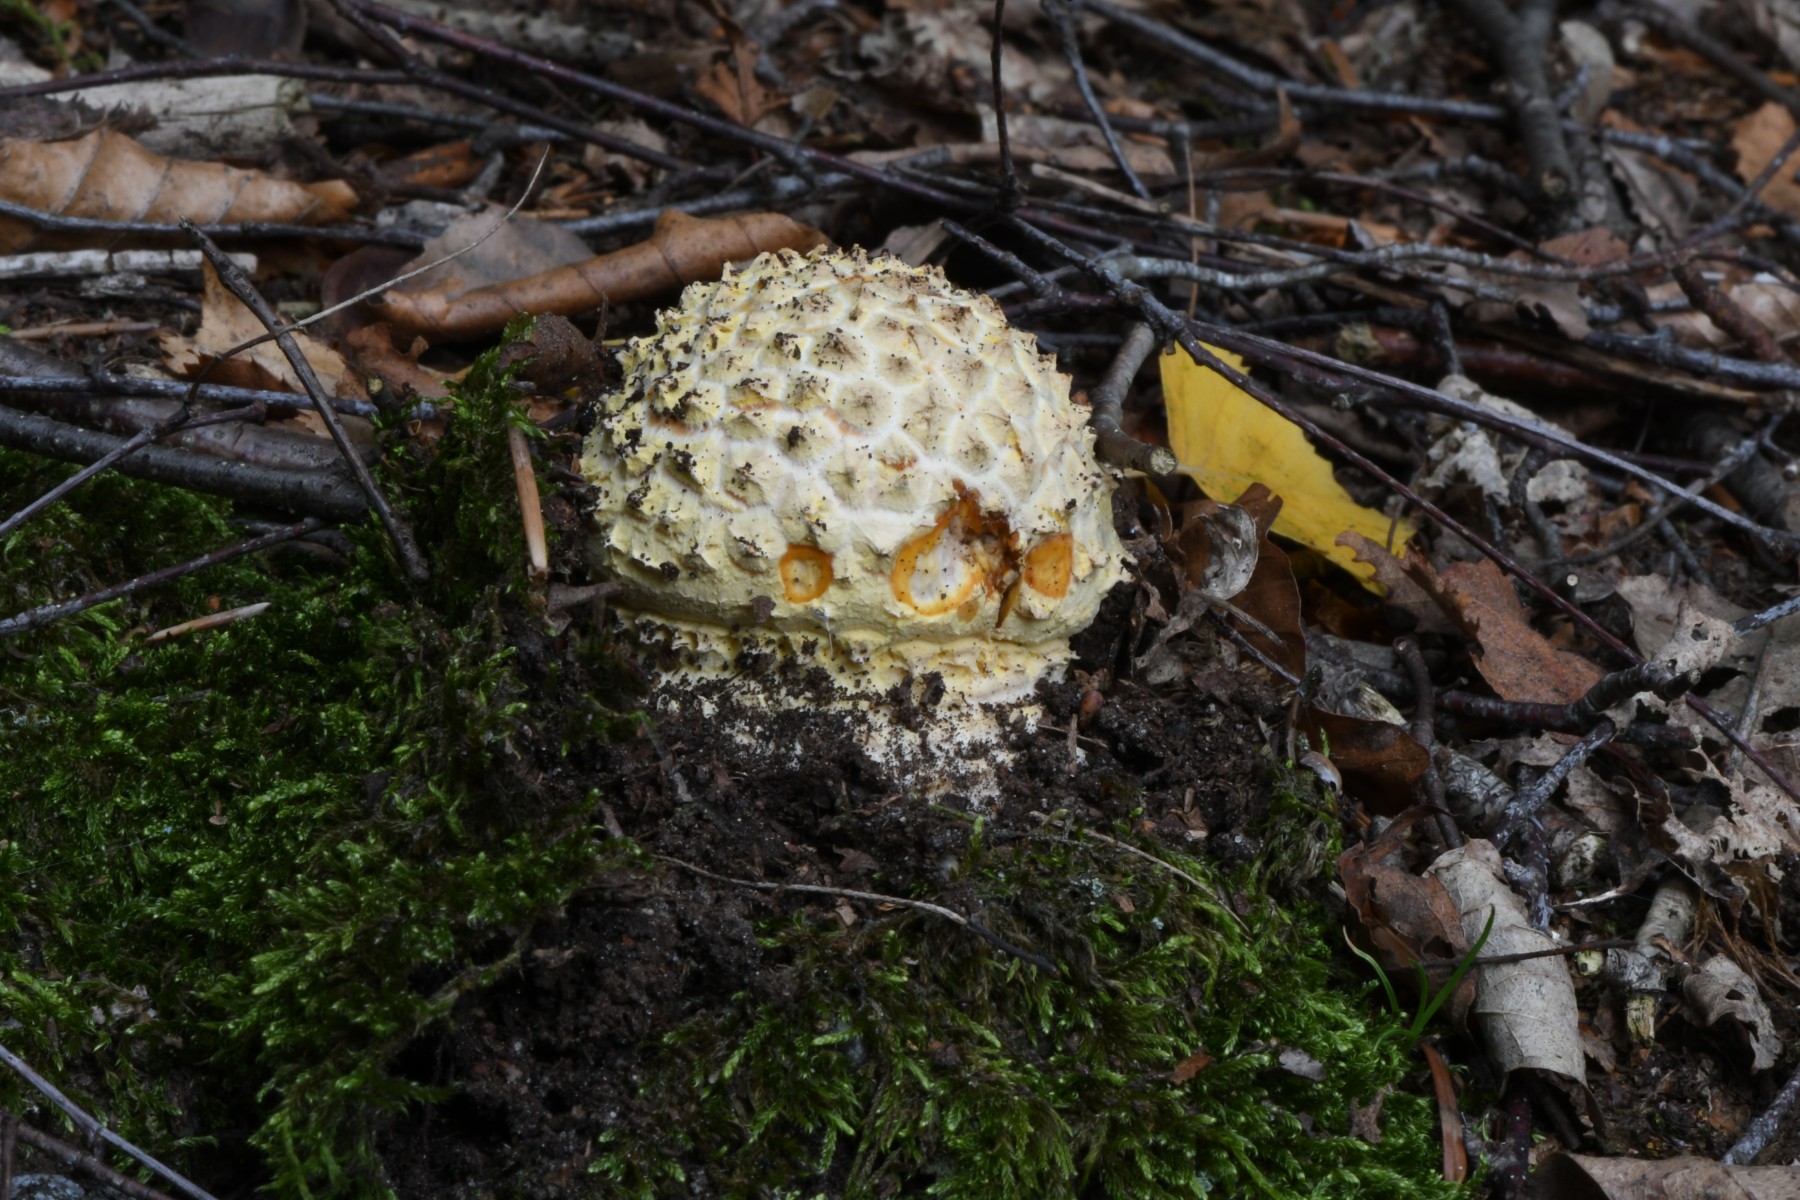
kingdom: Fungi
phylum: Basidiomycota
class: Agaricomycetes
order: Agaricales
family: Amanitaceae
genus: Amanita
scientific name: Amanita muscaria
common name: rød fluesvamp
